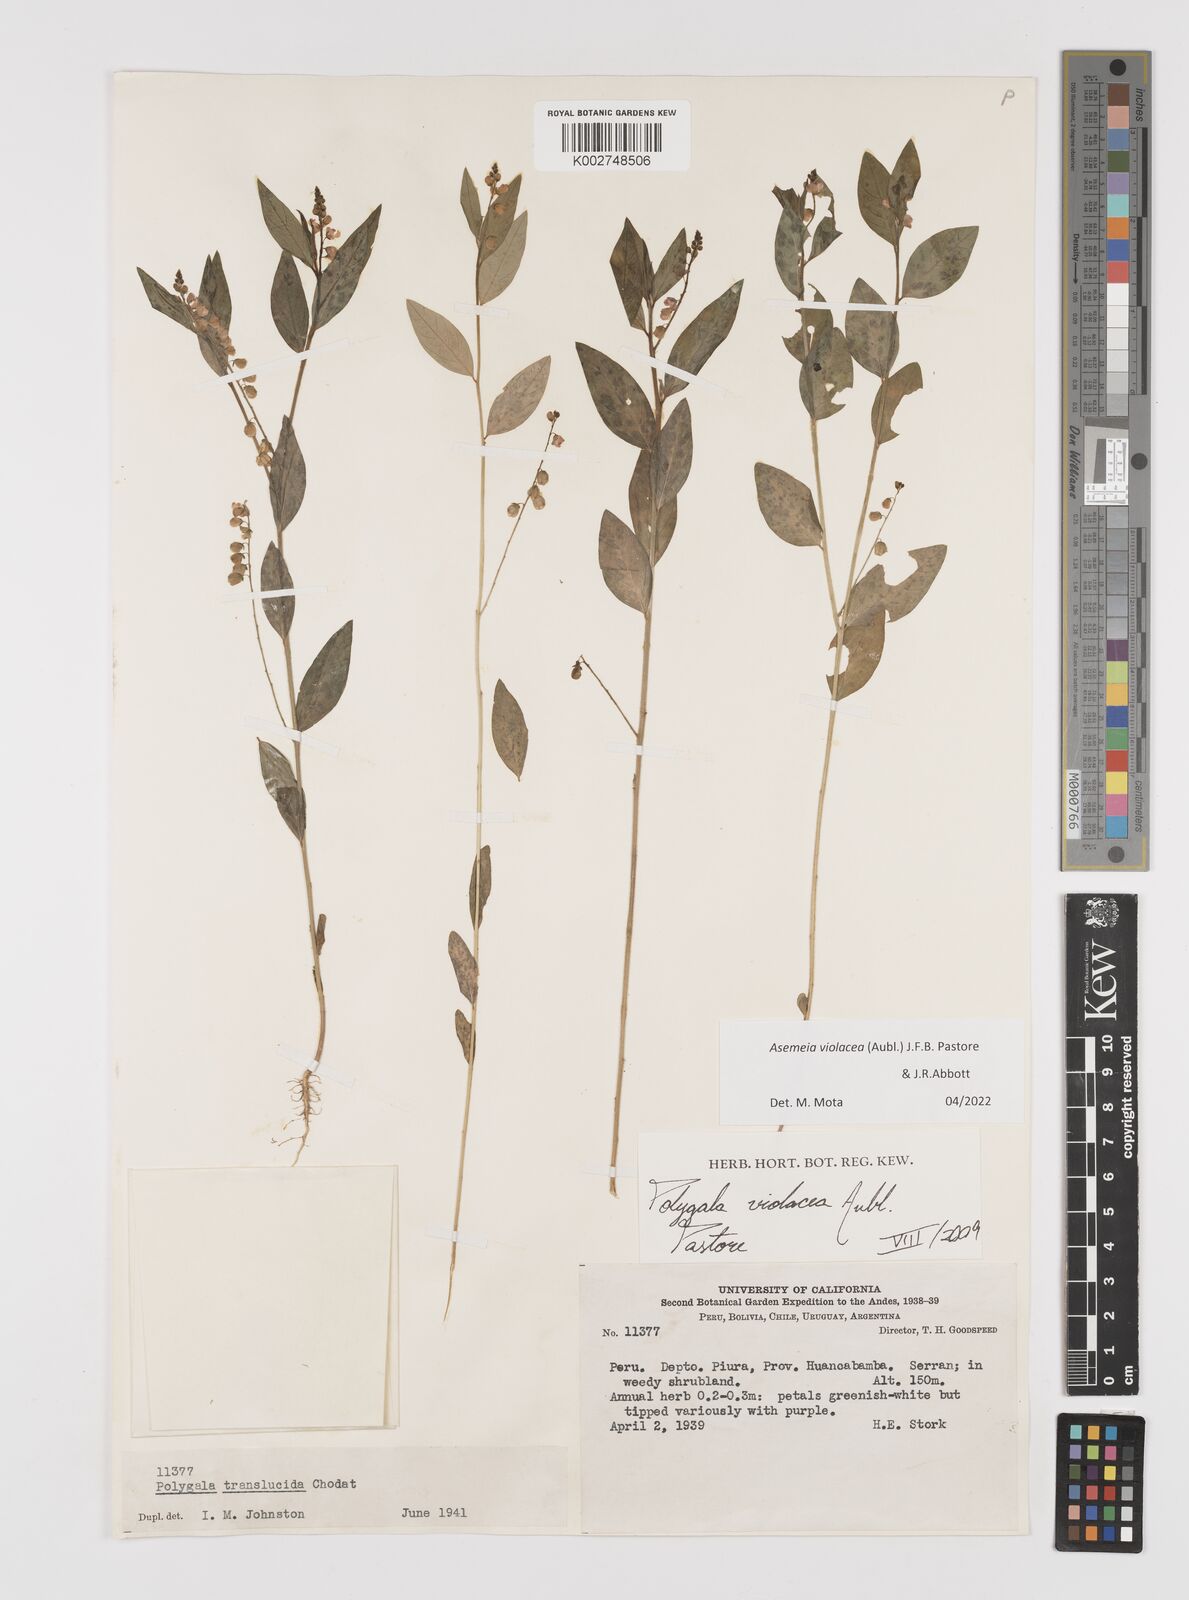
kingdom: Plantae
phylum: Tracheophyta
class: Magnoliopsida
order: Fabales
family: Polygalaceae
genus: Asemeia
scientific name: Asemeia violacea
